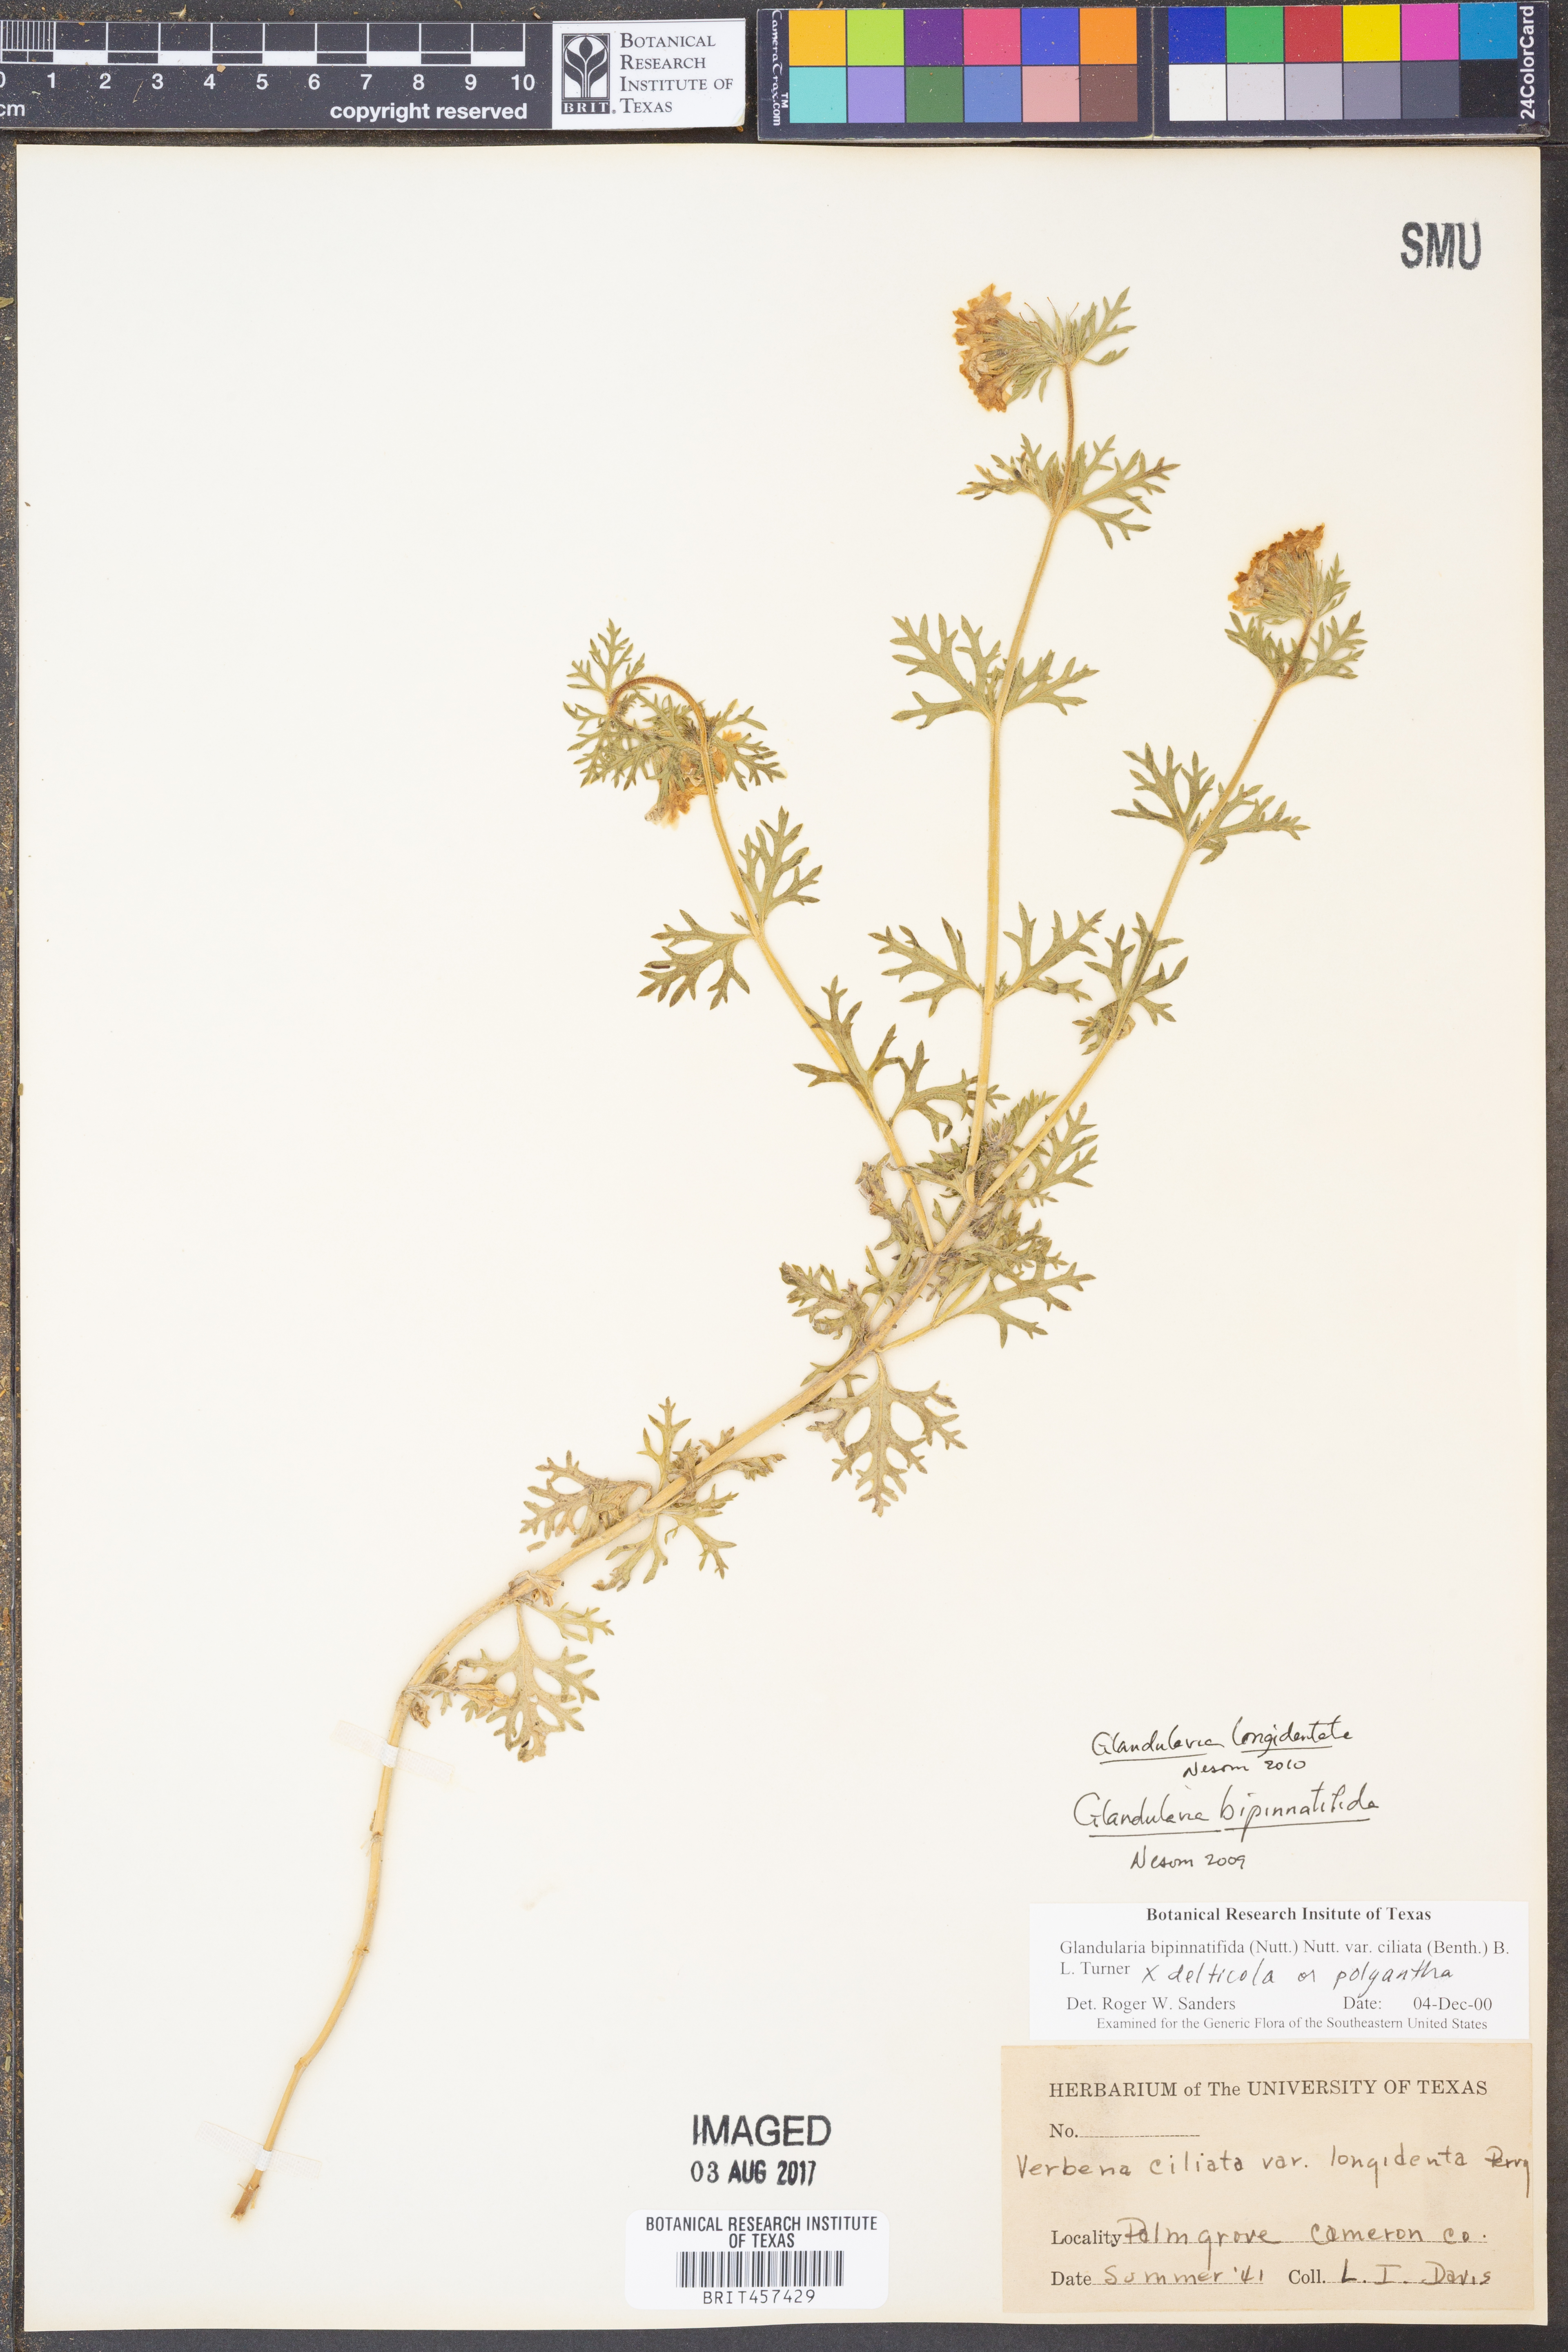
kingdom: Plantae
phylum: Tracheophyta
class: Magnoliopsida
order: Lamiales
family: Verbenaceae
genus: Verbena
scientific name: Verbena polyantha
